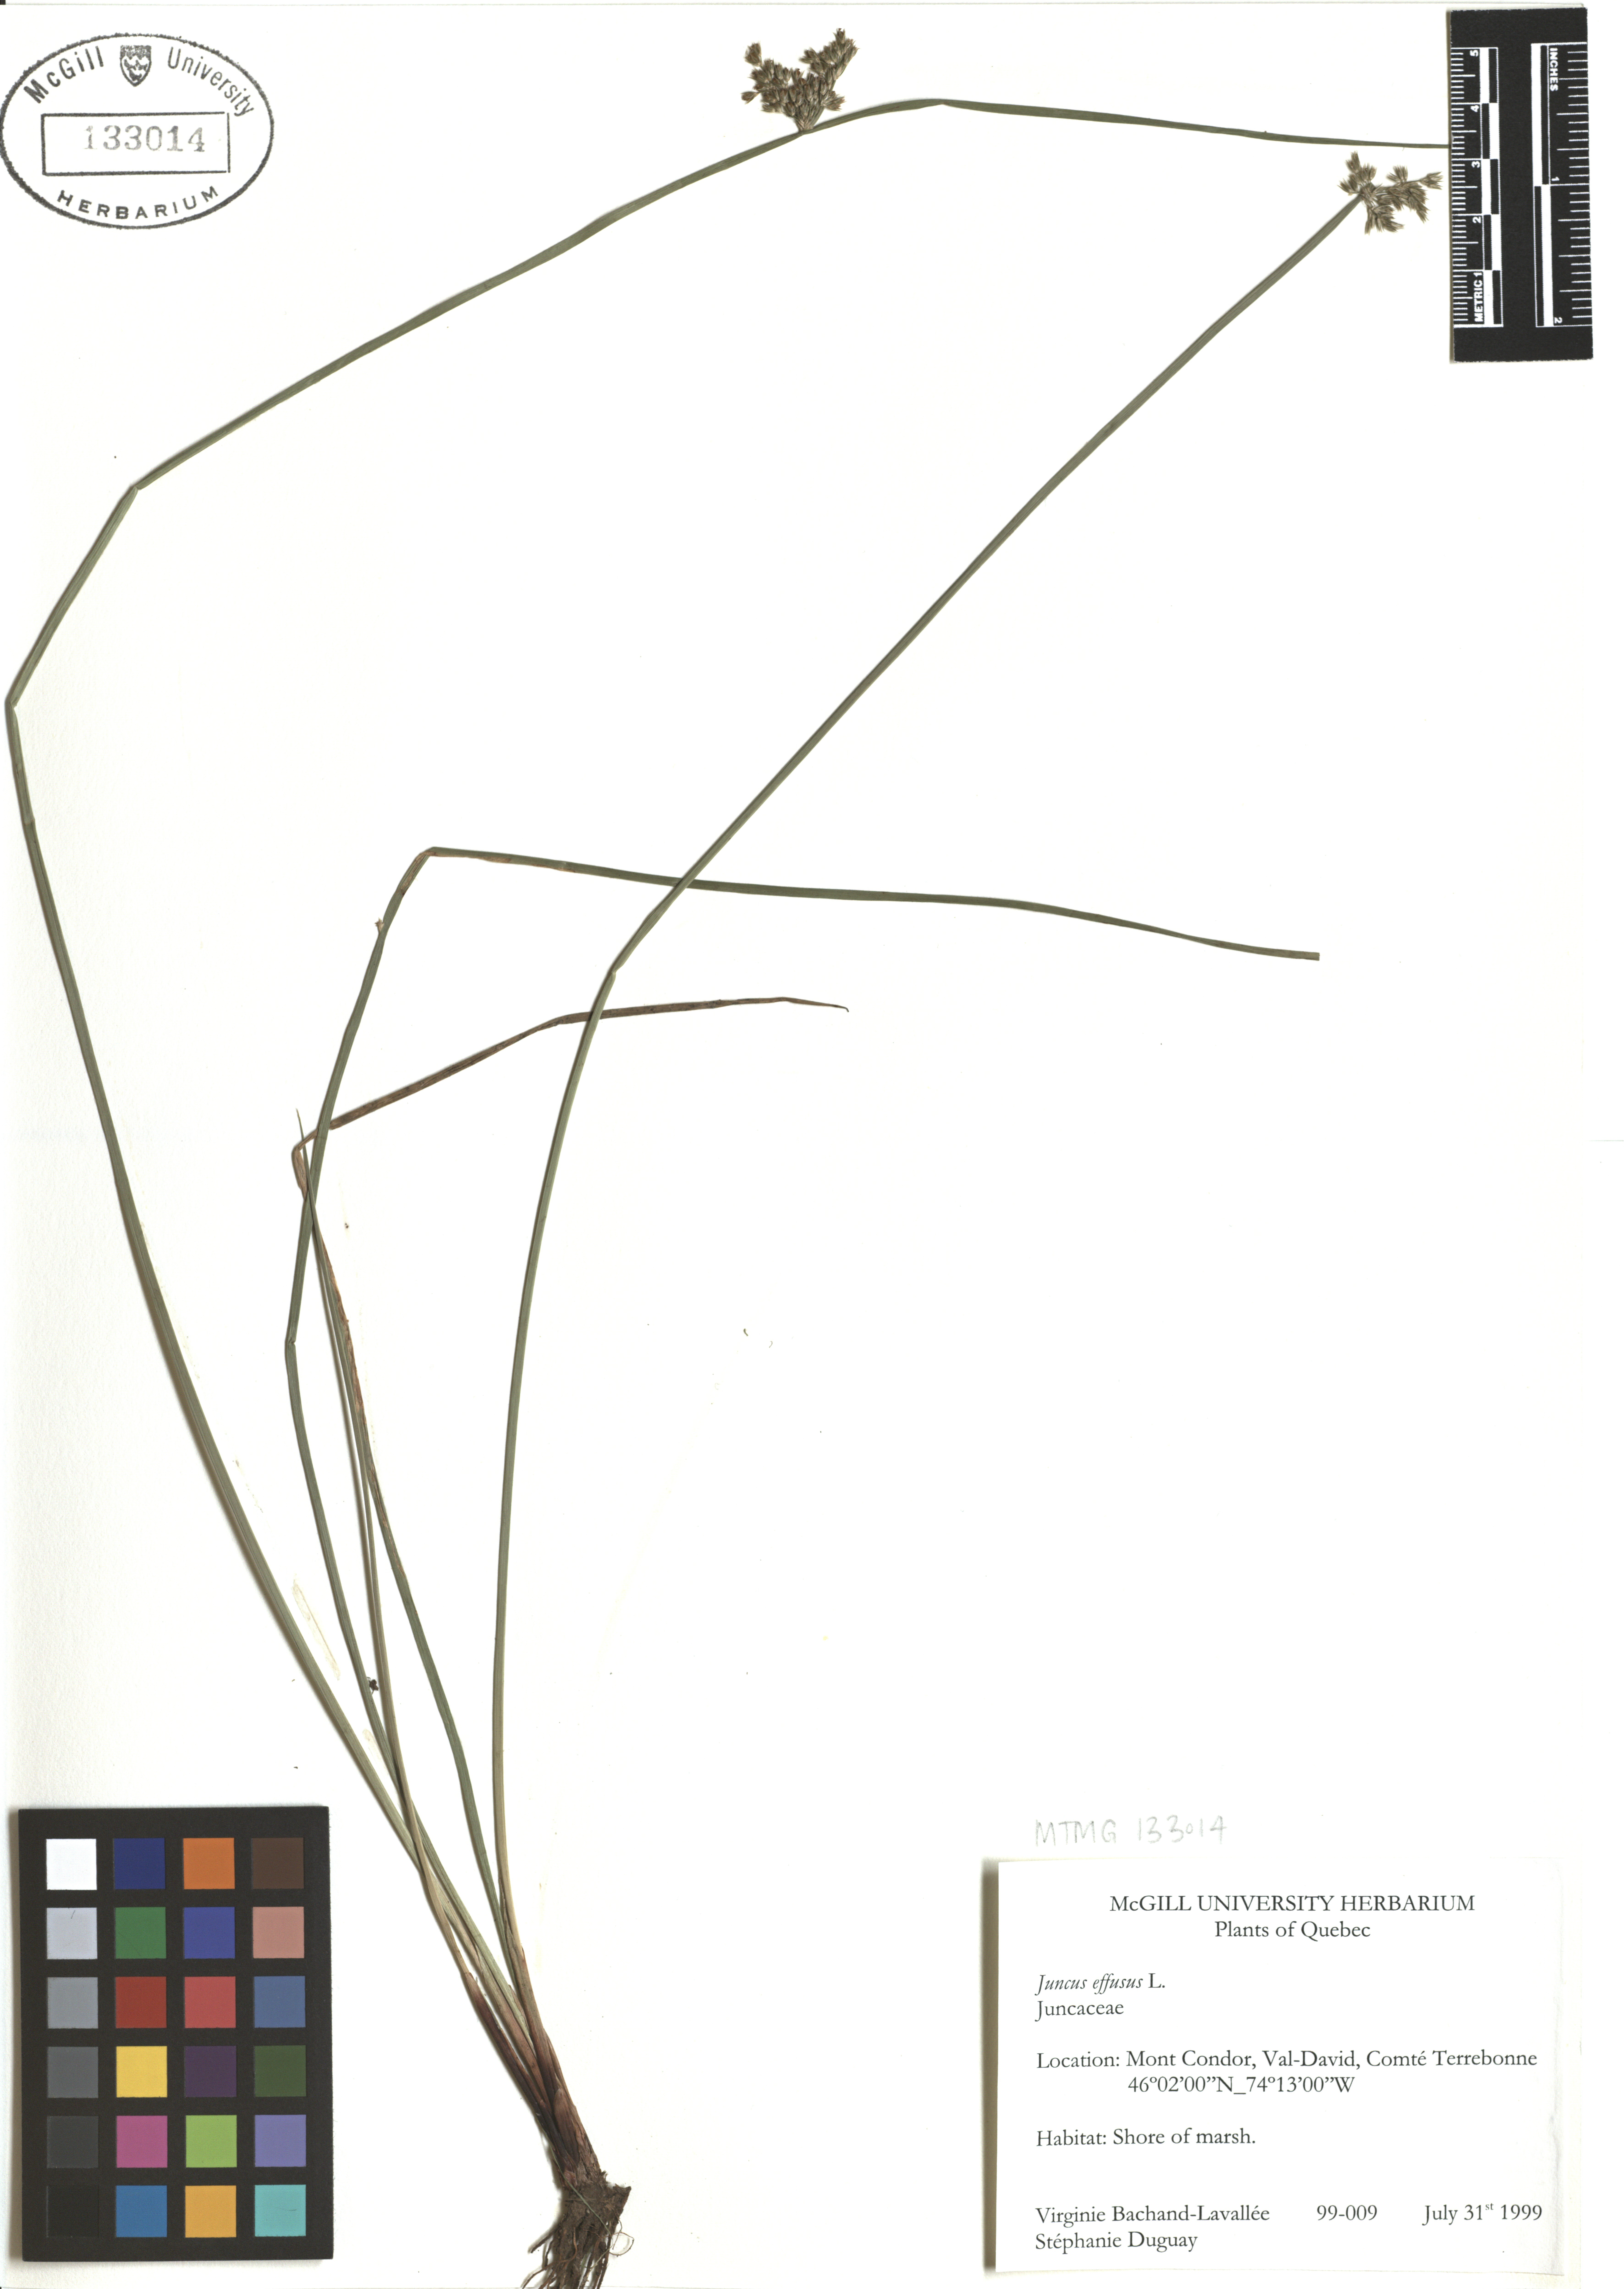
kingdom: Plantae
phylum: Tracheophyta
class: Liliopsida
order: Poales
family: Juncaceae
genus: Juncus
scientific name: Juncus effusus
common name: Soft rush
